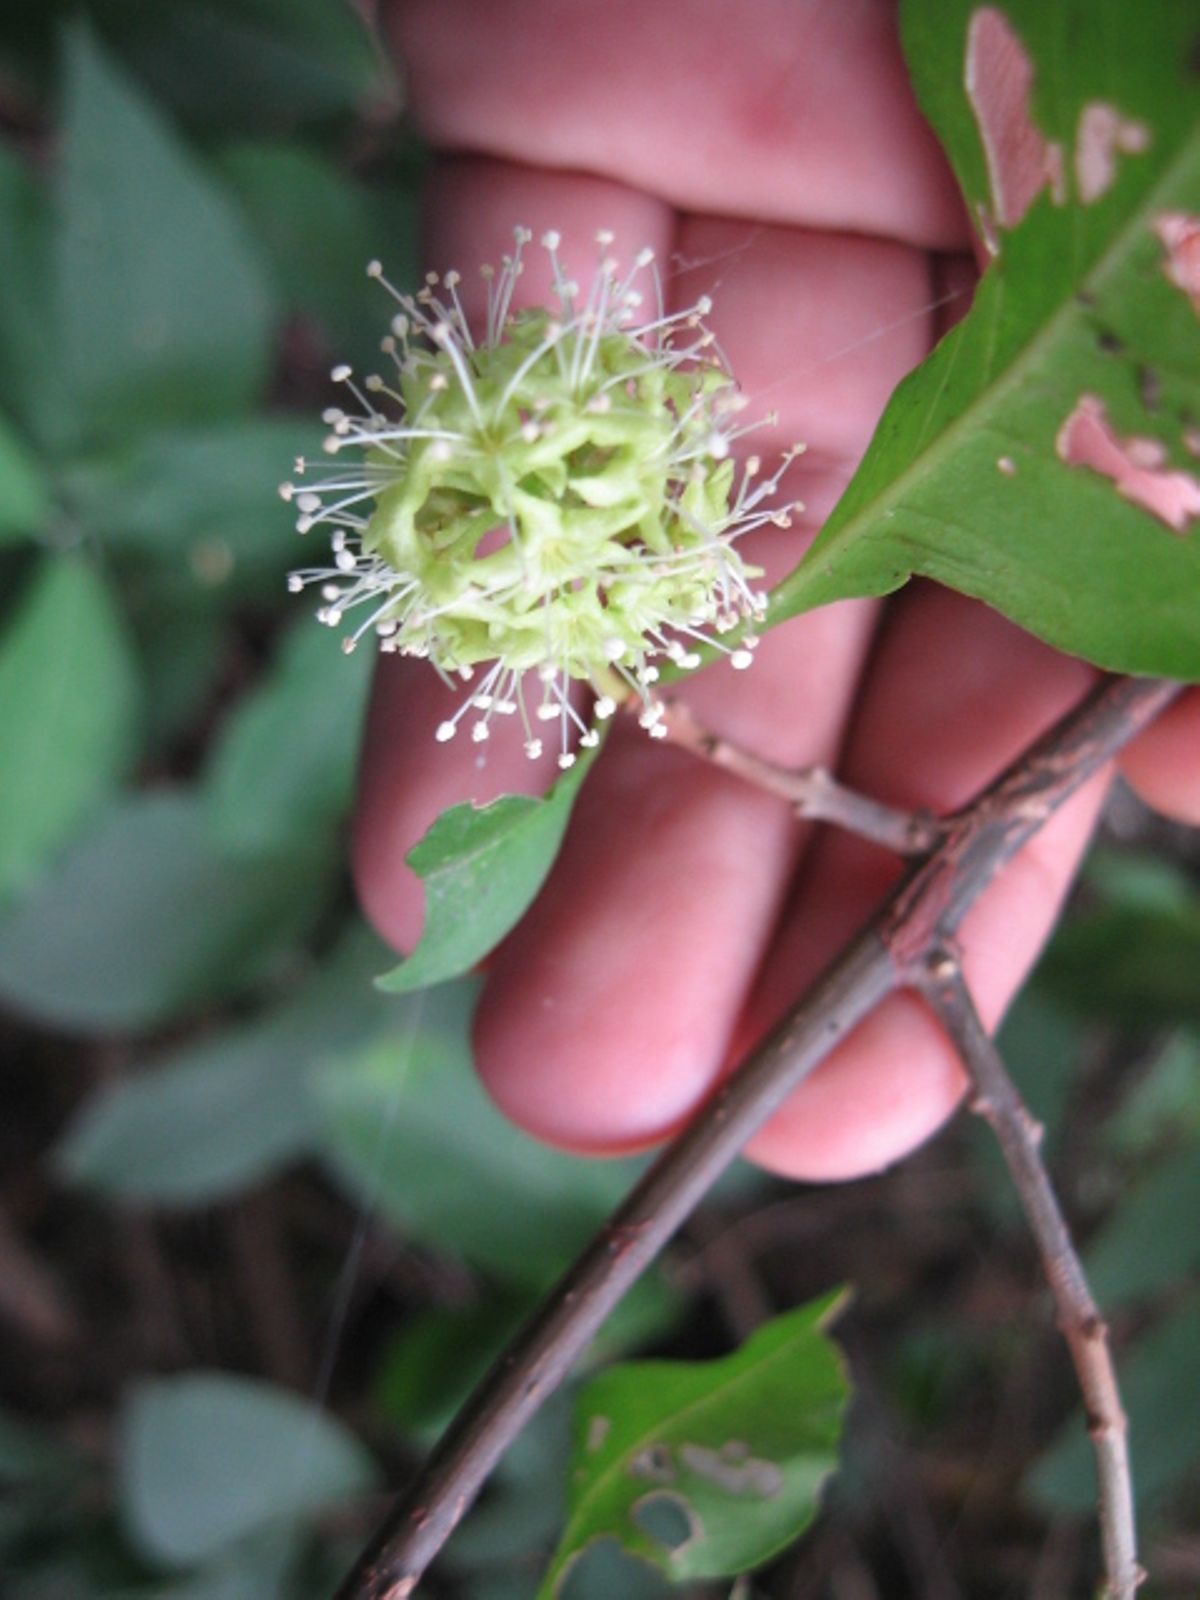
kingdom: Plantae
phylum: Tracheophyta
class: Magnoliopsida
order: Caryophyllales
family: Nyctaginaceae
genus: Pisonia
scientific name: Pisonia macranthocarpa
